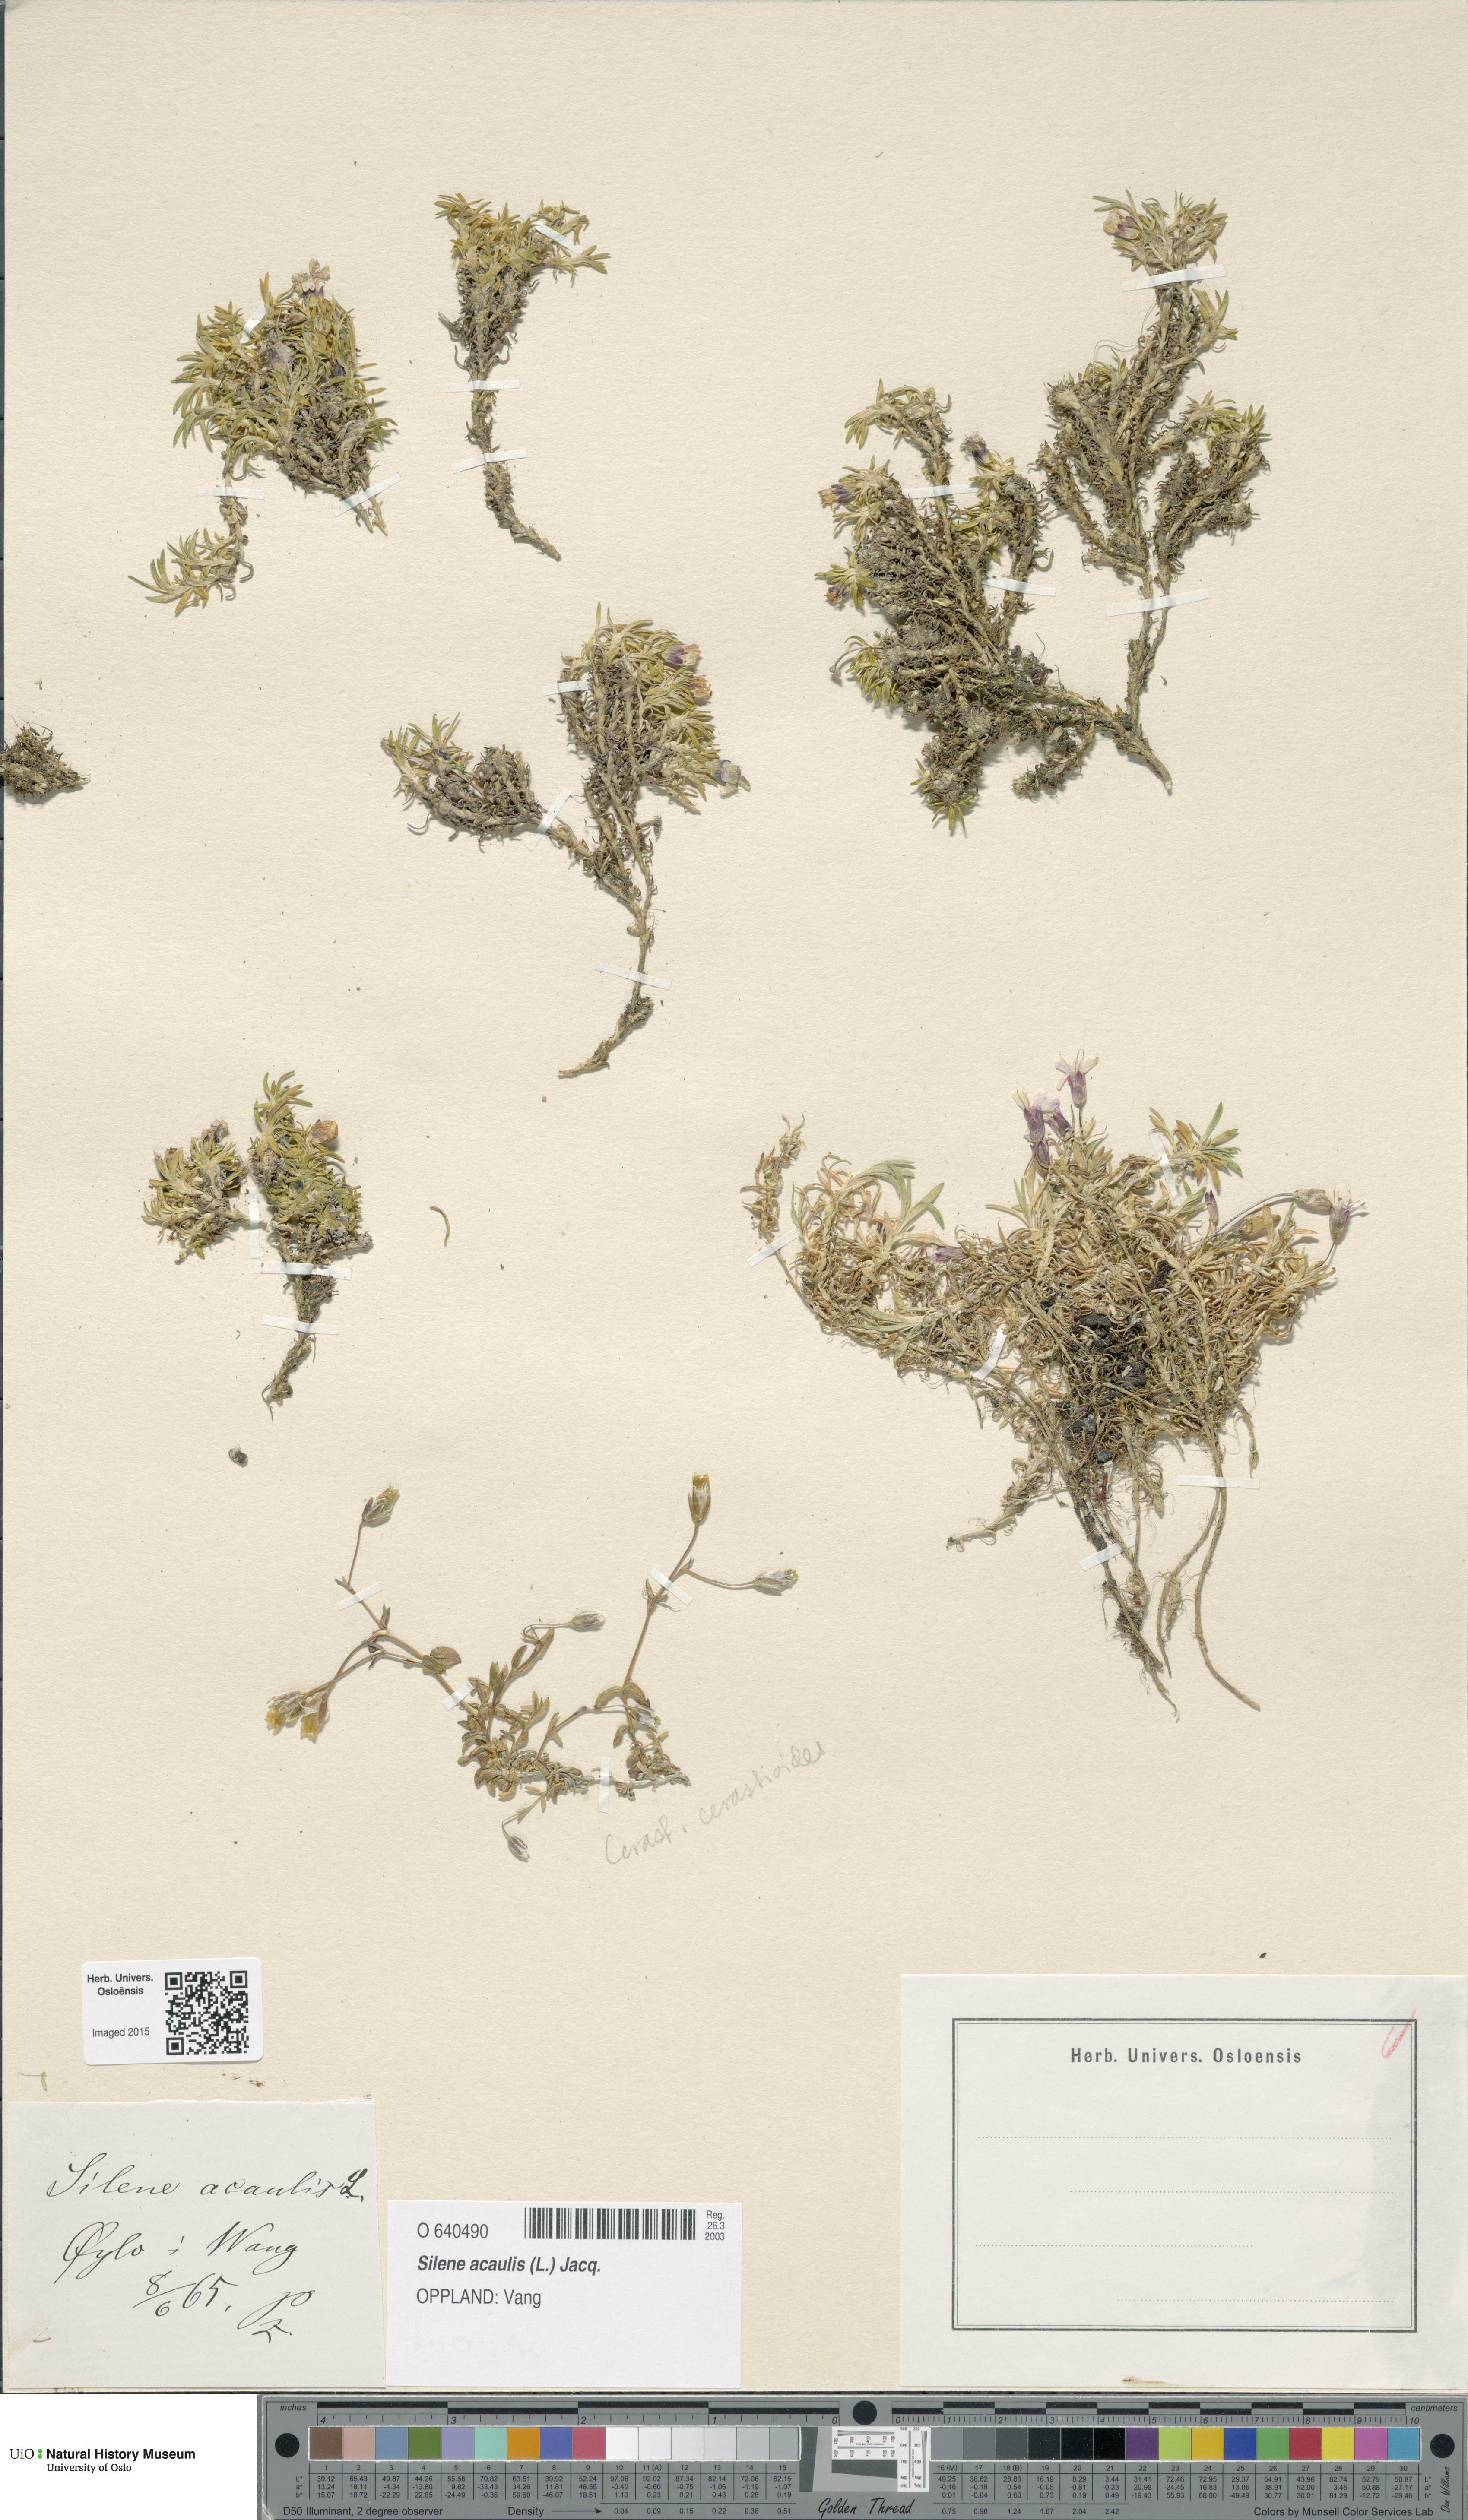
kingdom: Plantae
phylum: Tracheophyta
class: Magnoliopsida
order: Caryophyllales
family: Caryophyllaceae
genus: Silene
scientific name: Silene acaulis
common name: Moss campion
